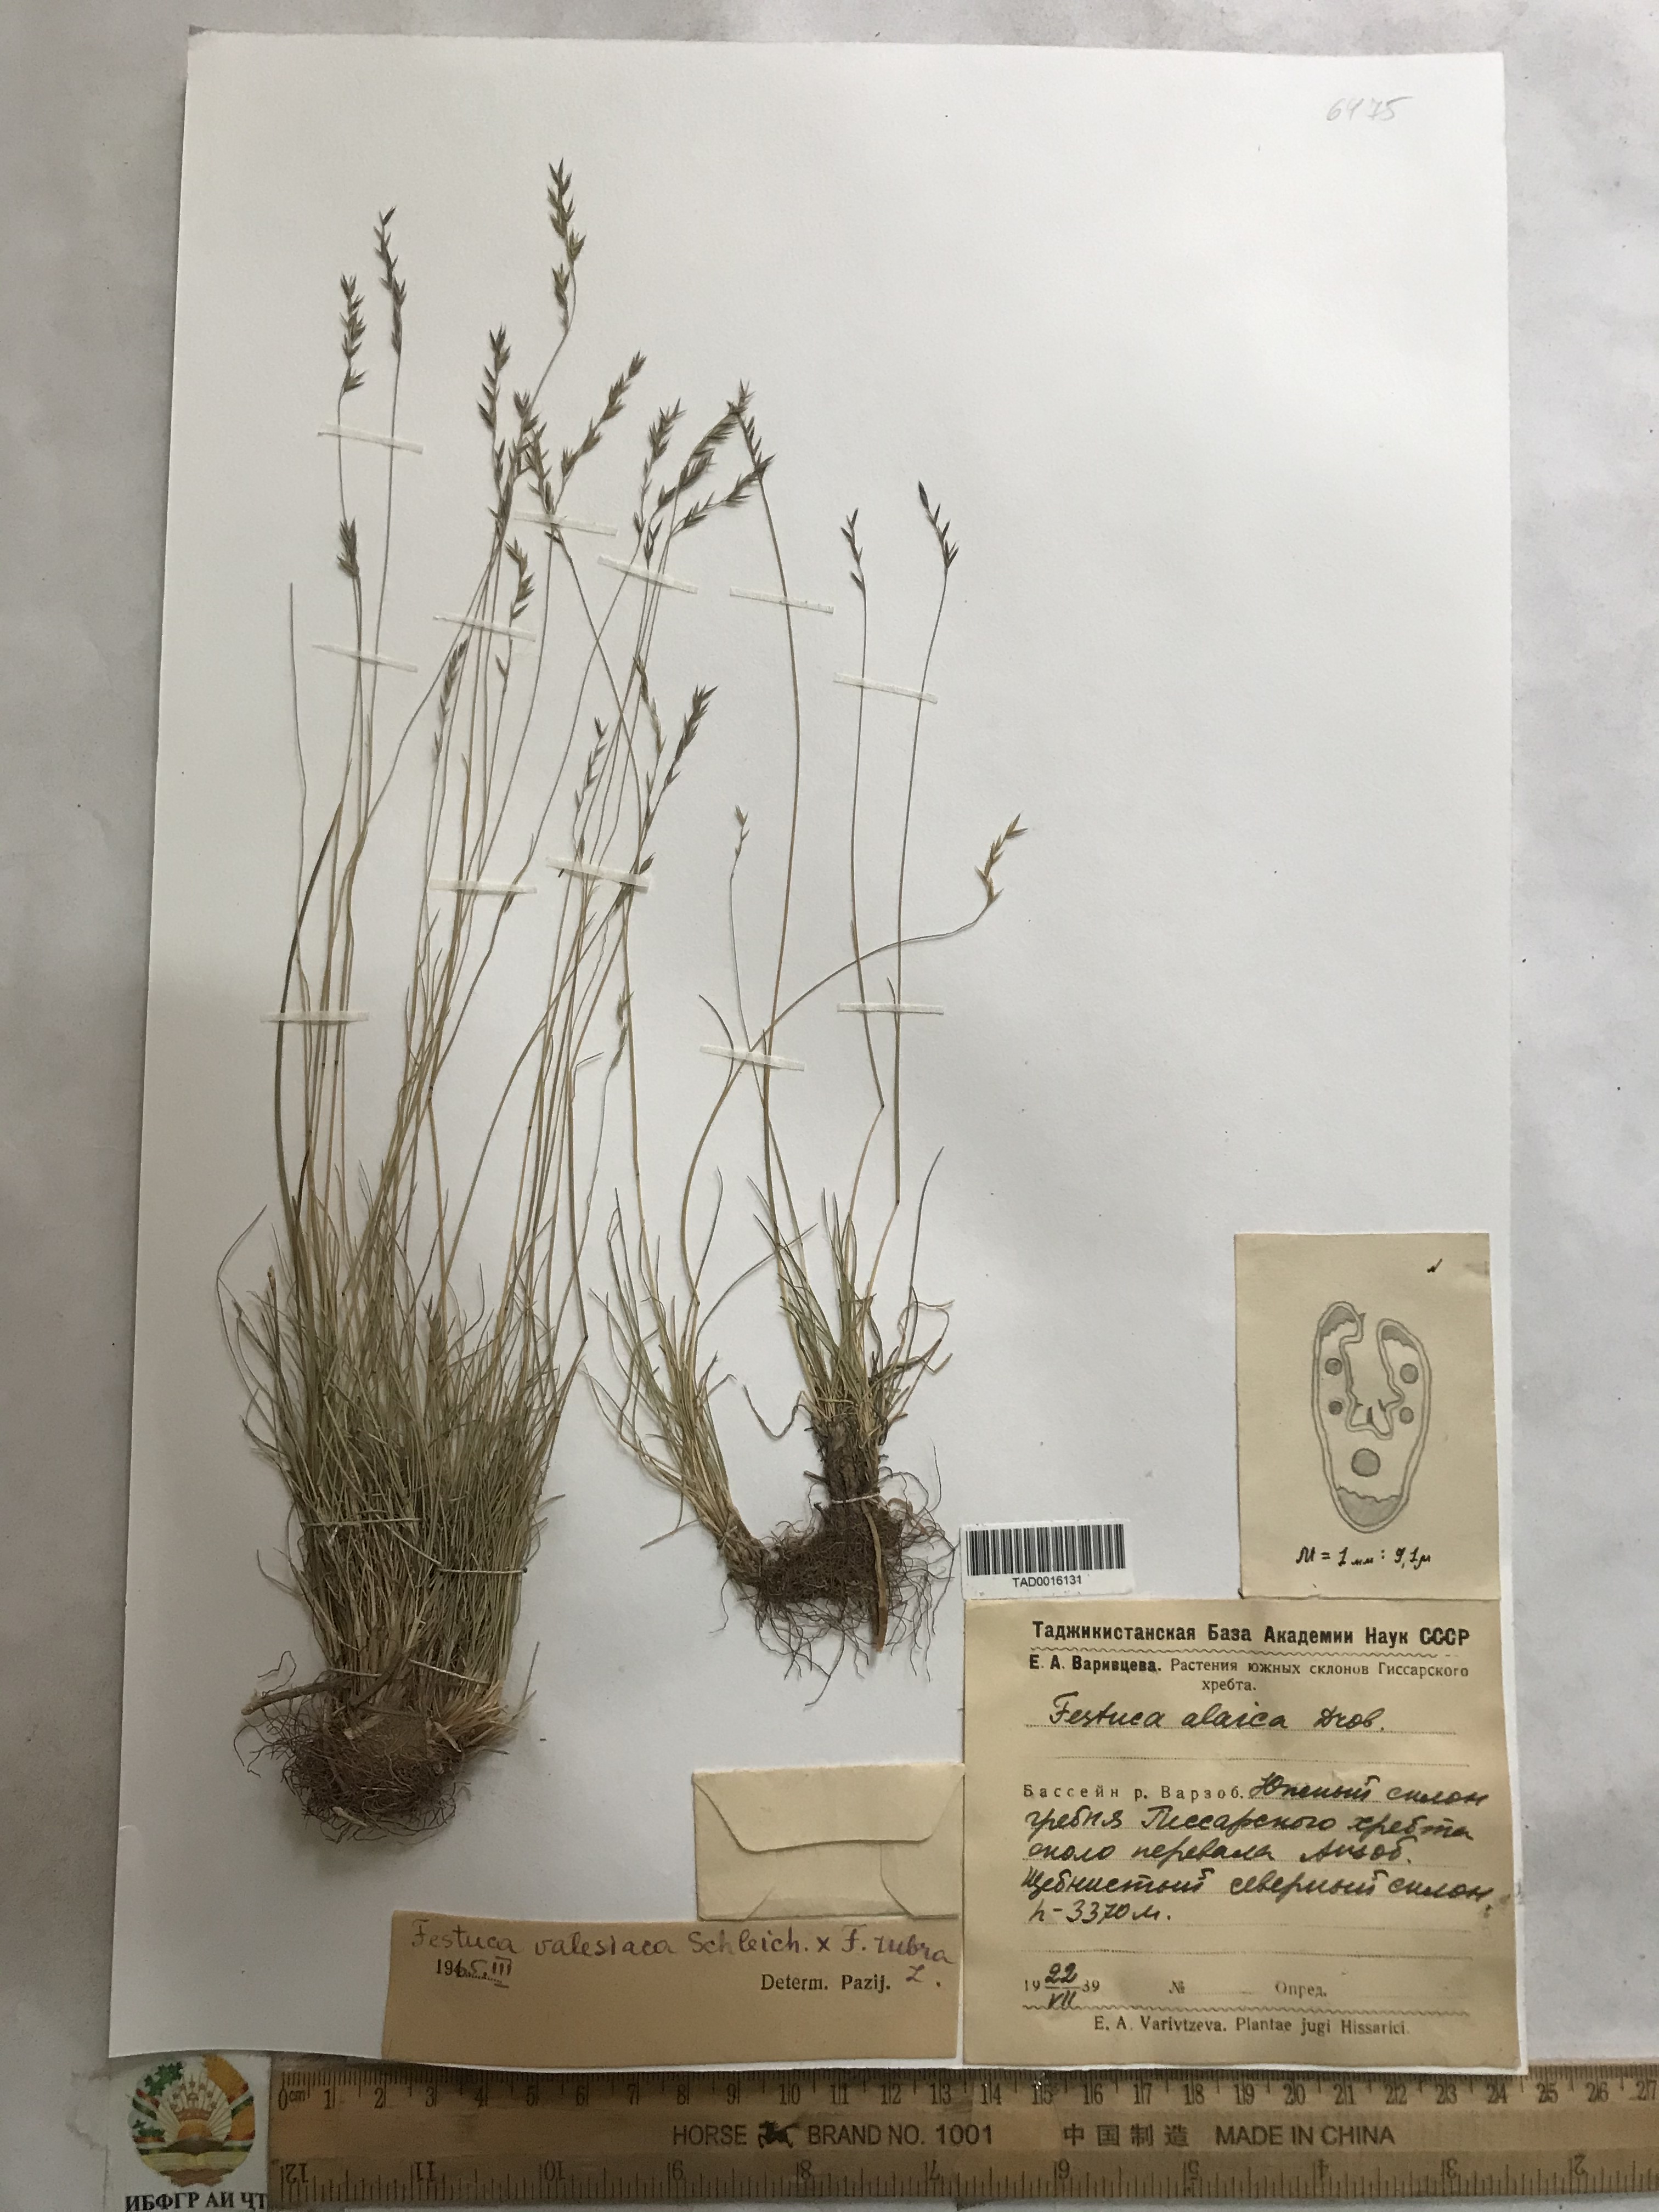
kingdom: Plantae
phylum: Tracheophyta
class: Liliopsida
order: Poales
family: Poaceae
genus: Festuca
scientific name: Festuca valesiaca
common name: Volga fescue
